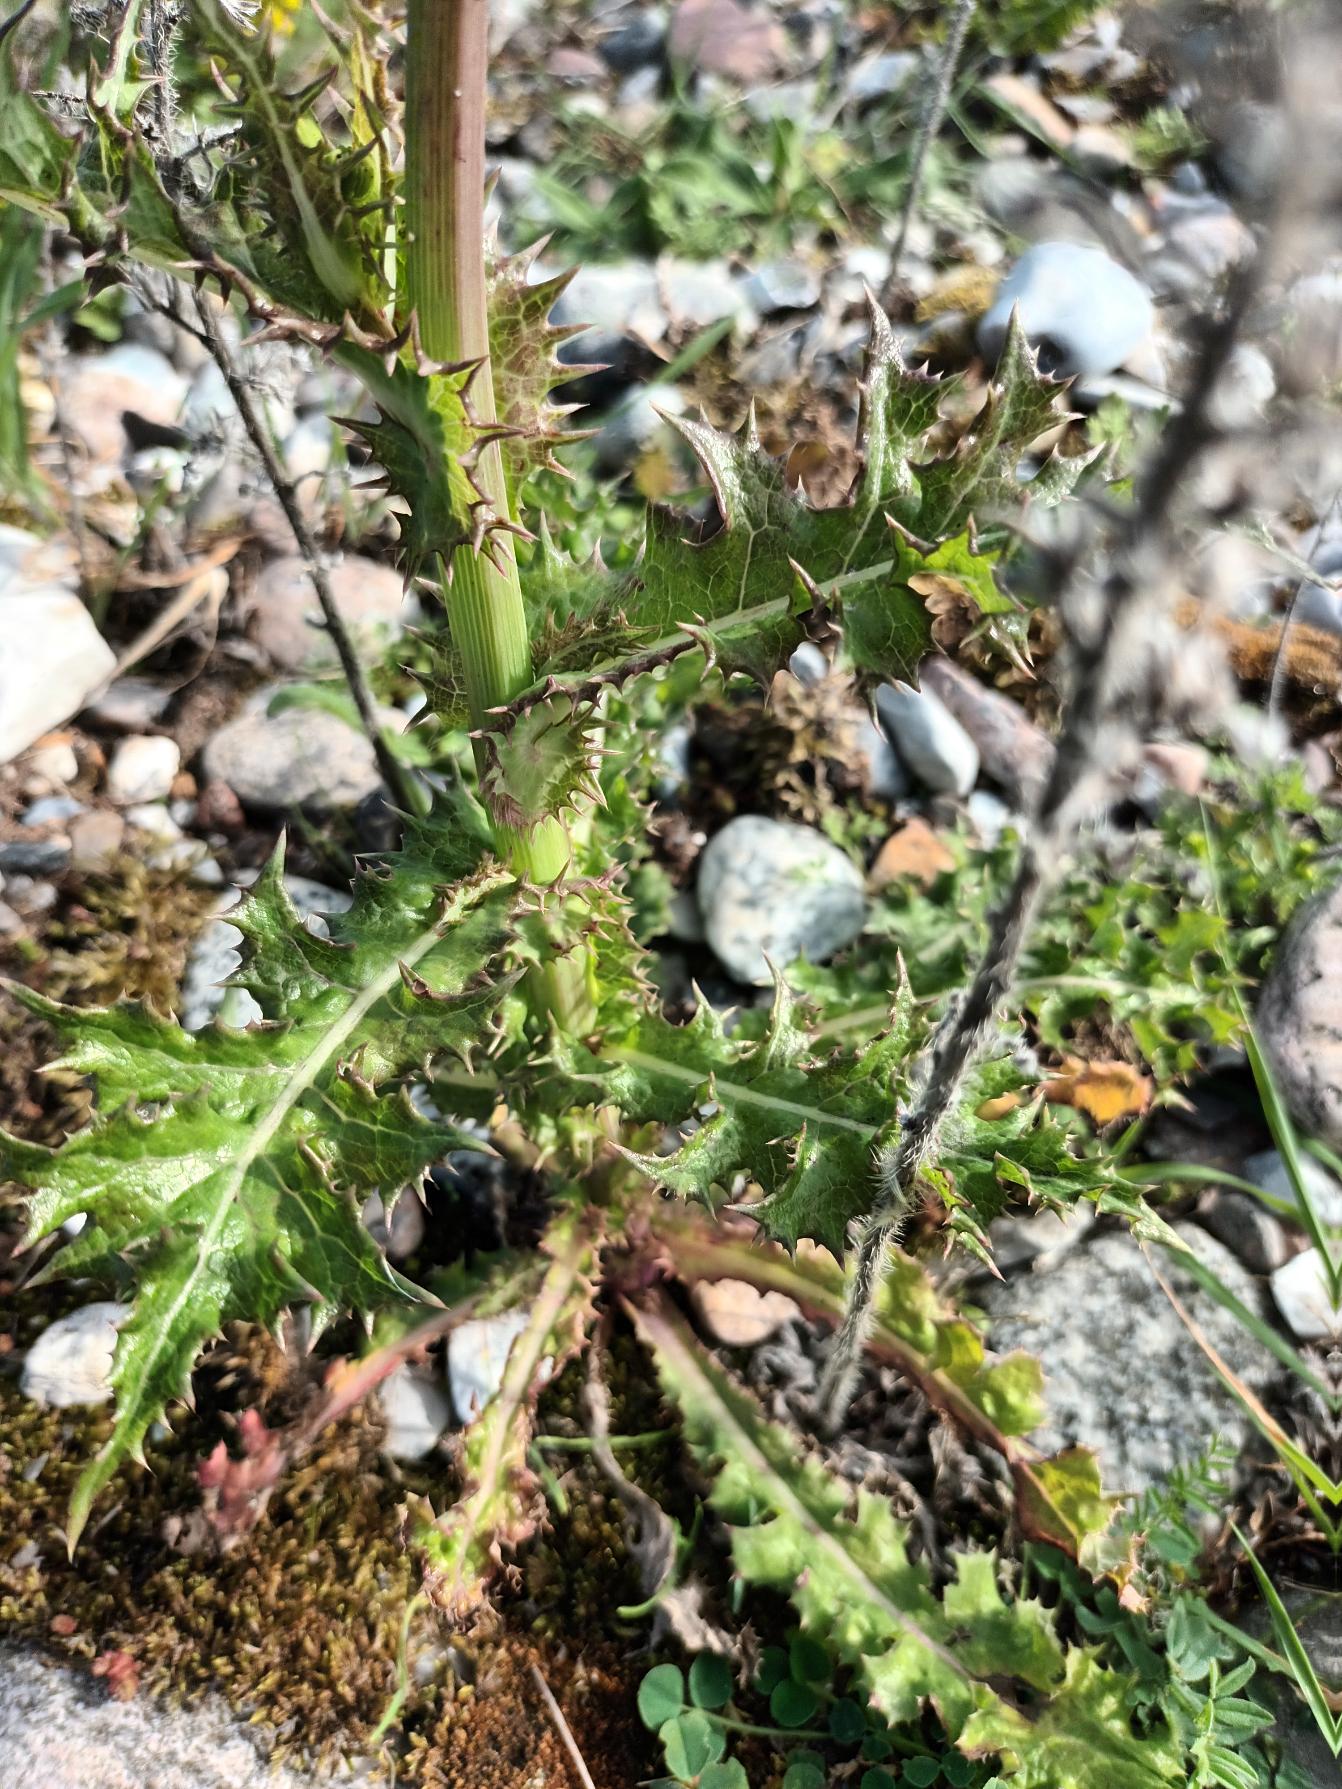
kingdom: Plantae
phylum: Tracheophyta
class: Magnoliopsida
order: Asterales
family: Asteraceae
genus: Sonchus
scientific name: Sonchus asper
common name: Ru svinemælk
